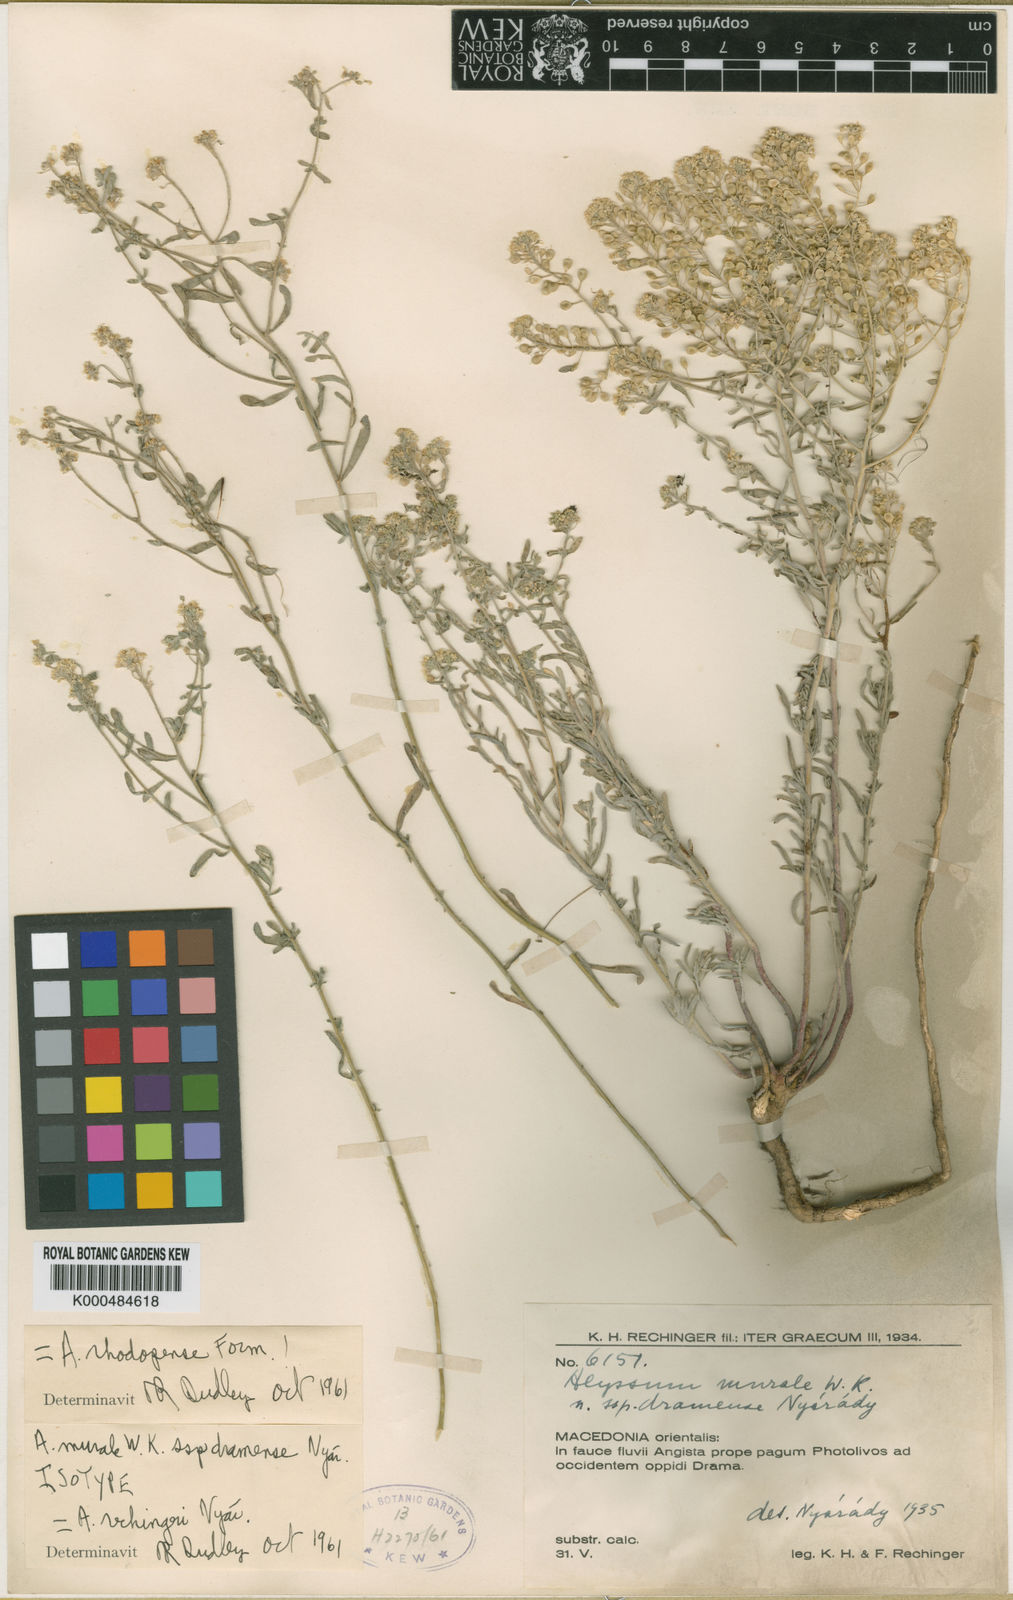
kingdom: Plantae
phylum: Tracheophyta
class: Magnoliopsida
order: Brassicales
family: Brassicaceae
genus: Odontarrhena
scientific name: Odontarrhena corymbosoidea
